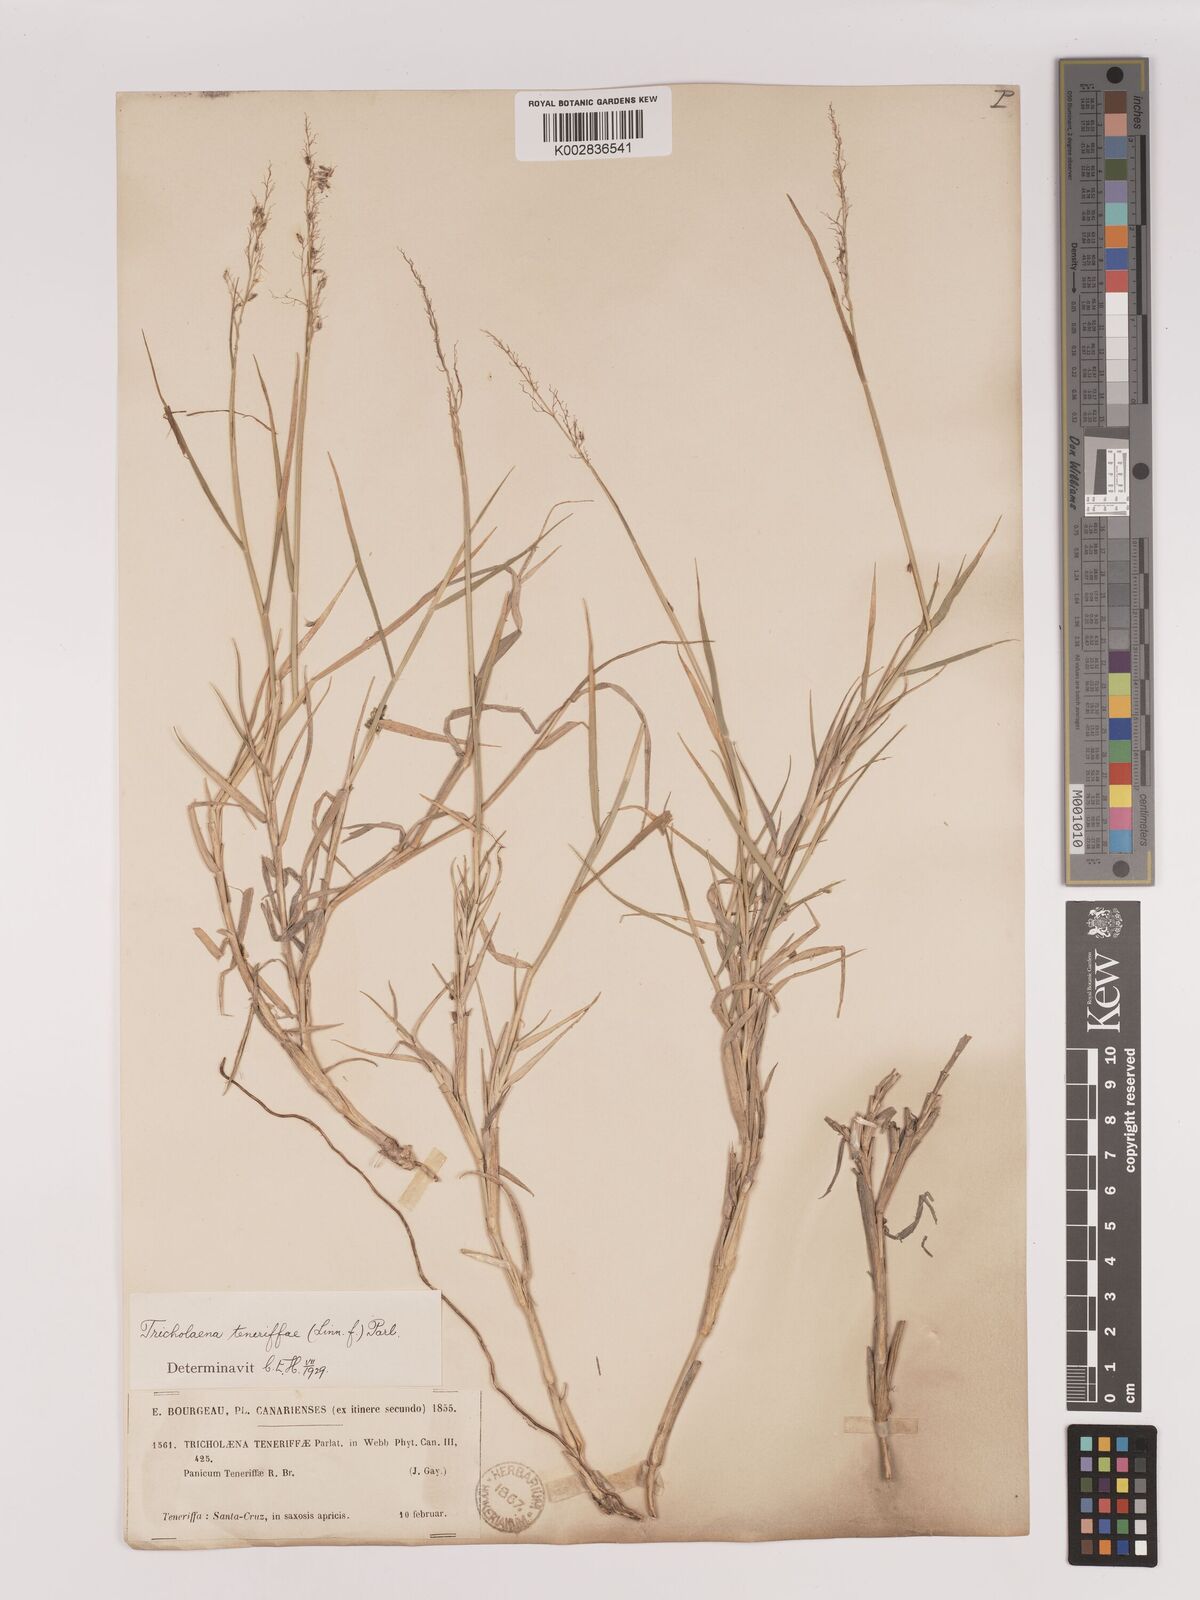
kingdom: Plantae
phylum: Tracheophyta
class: Liliopsida
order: Poales
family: Poaceae
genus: Tricholaena
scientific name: Tricholaena teneriffae
